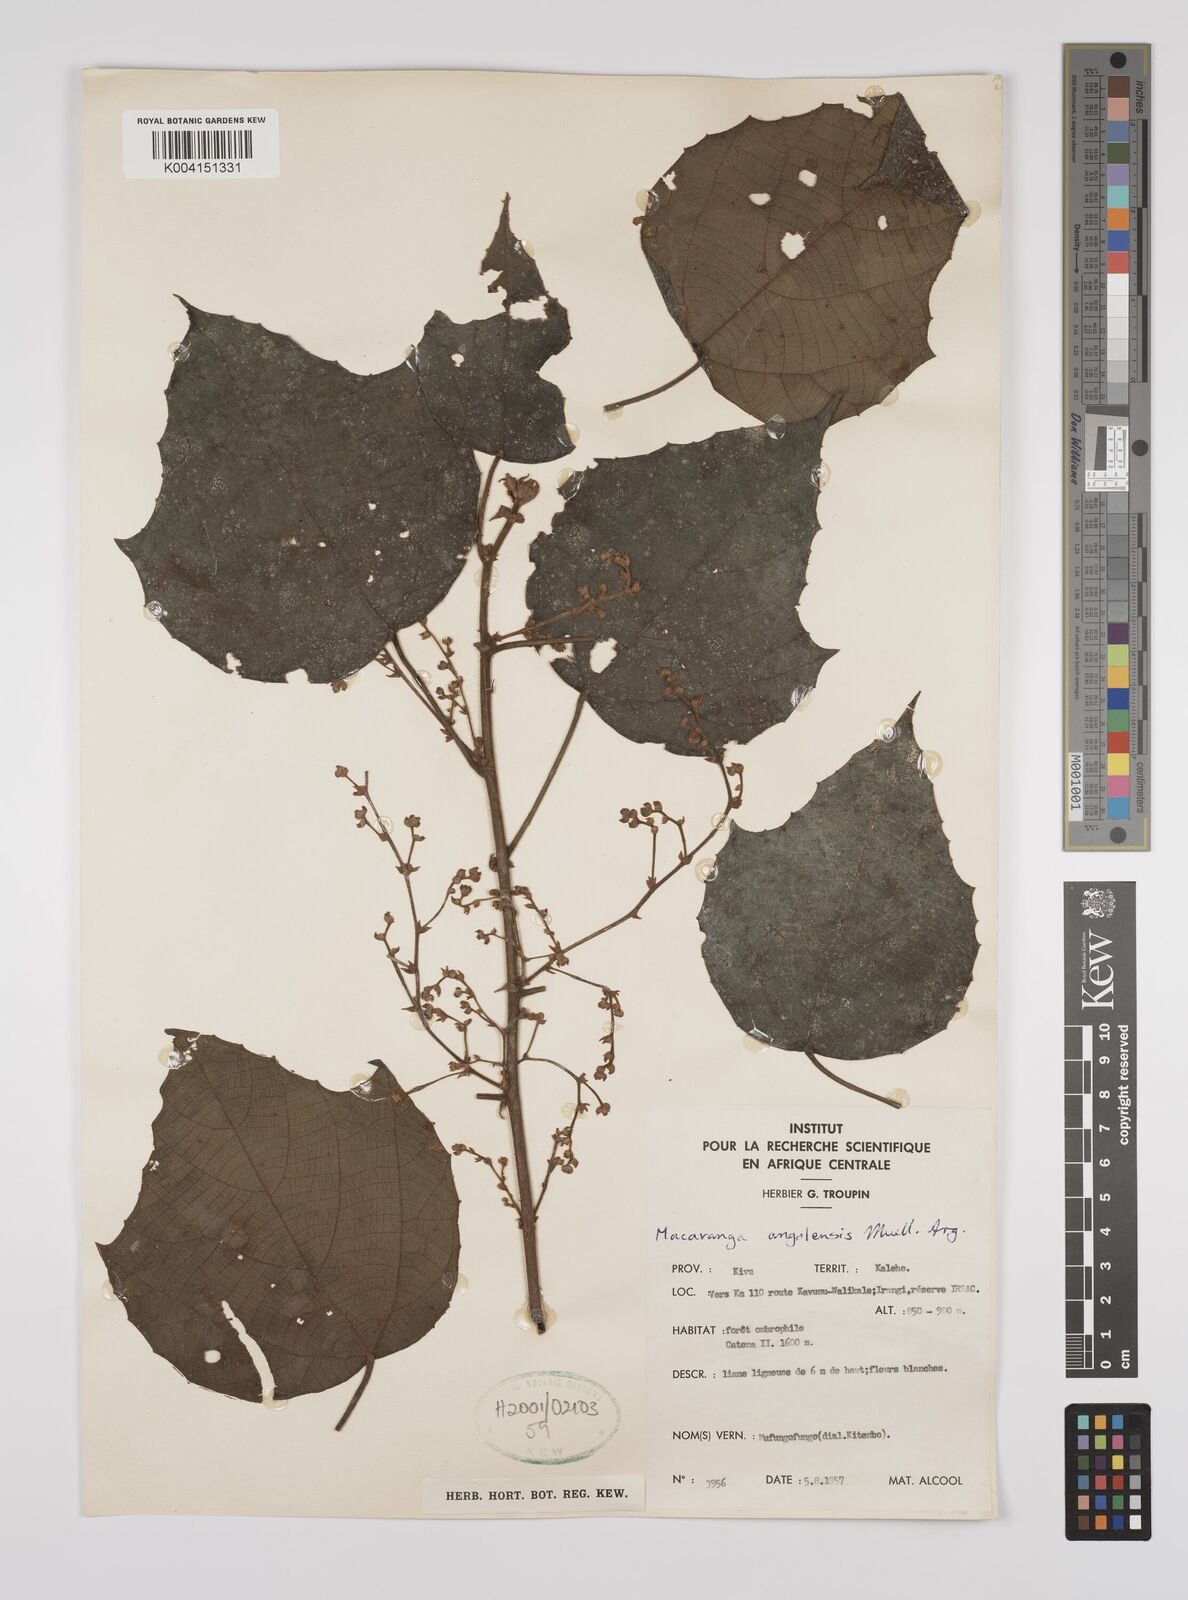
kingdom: Plantae
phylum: Tracheophyta
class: Magnoliopsida
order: Malpighiales
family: Euphorbiaceae
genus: Macaranga
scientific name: Macaranga angolensis
